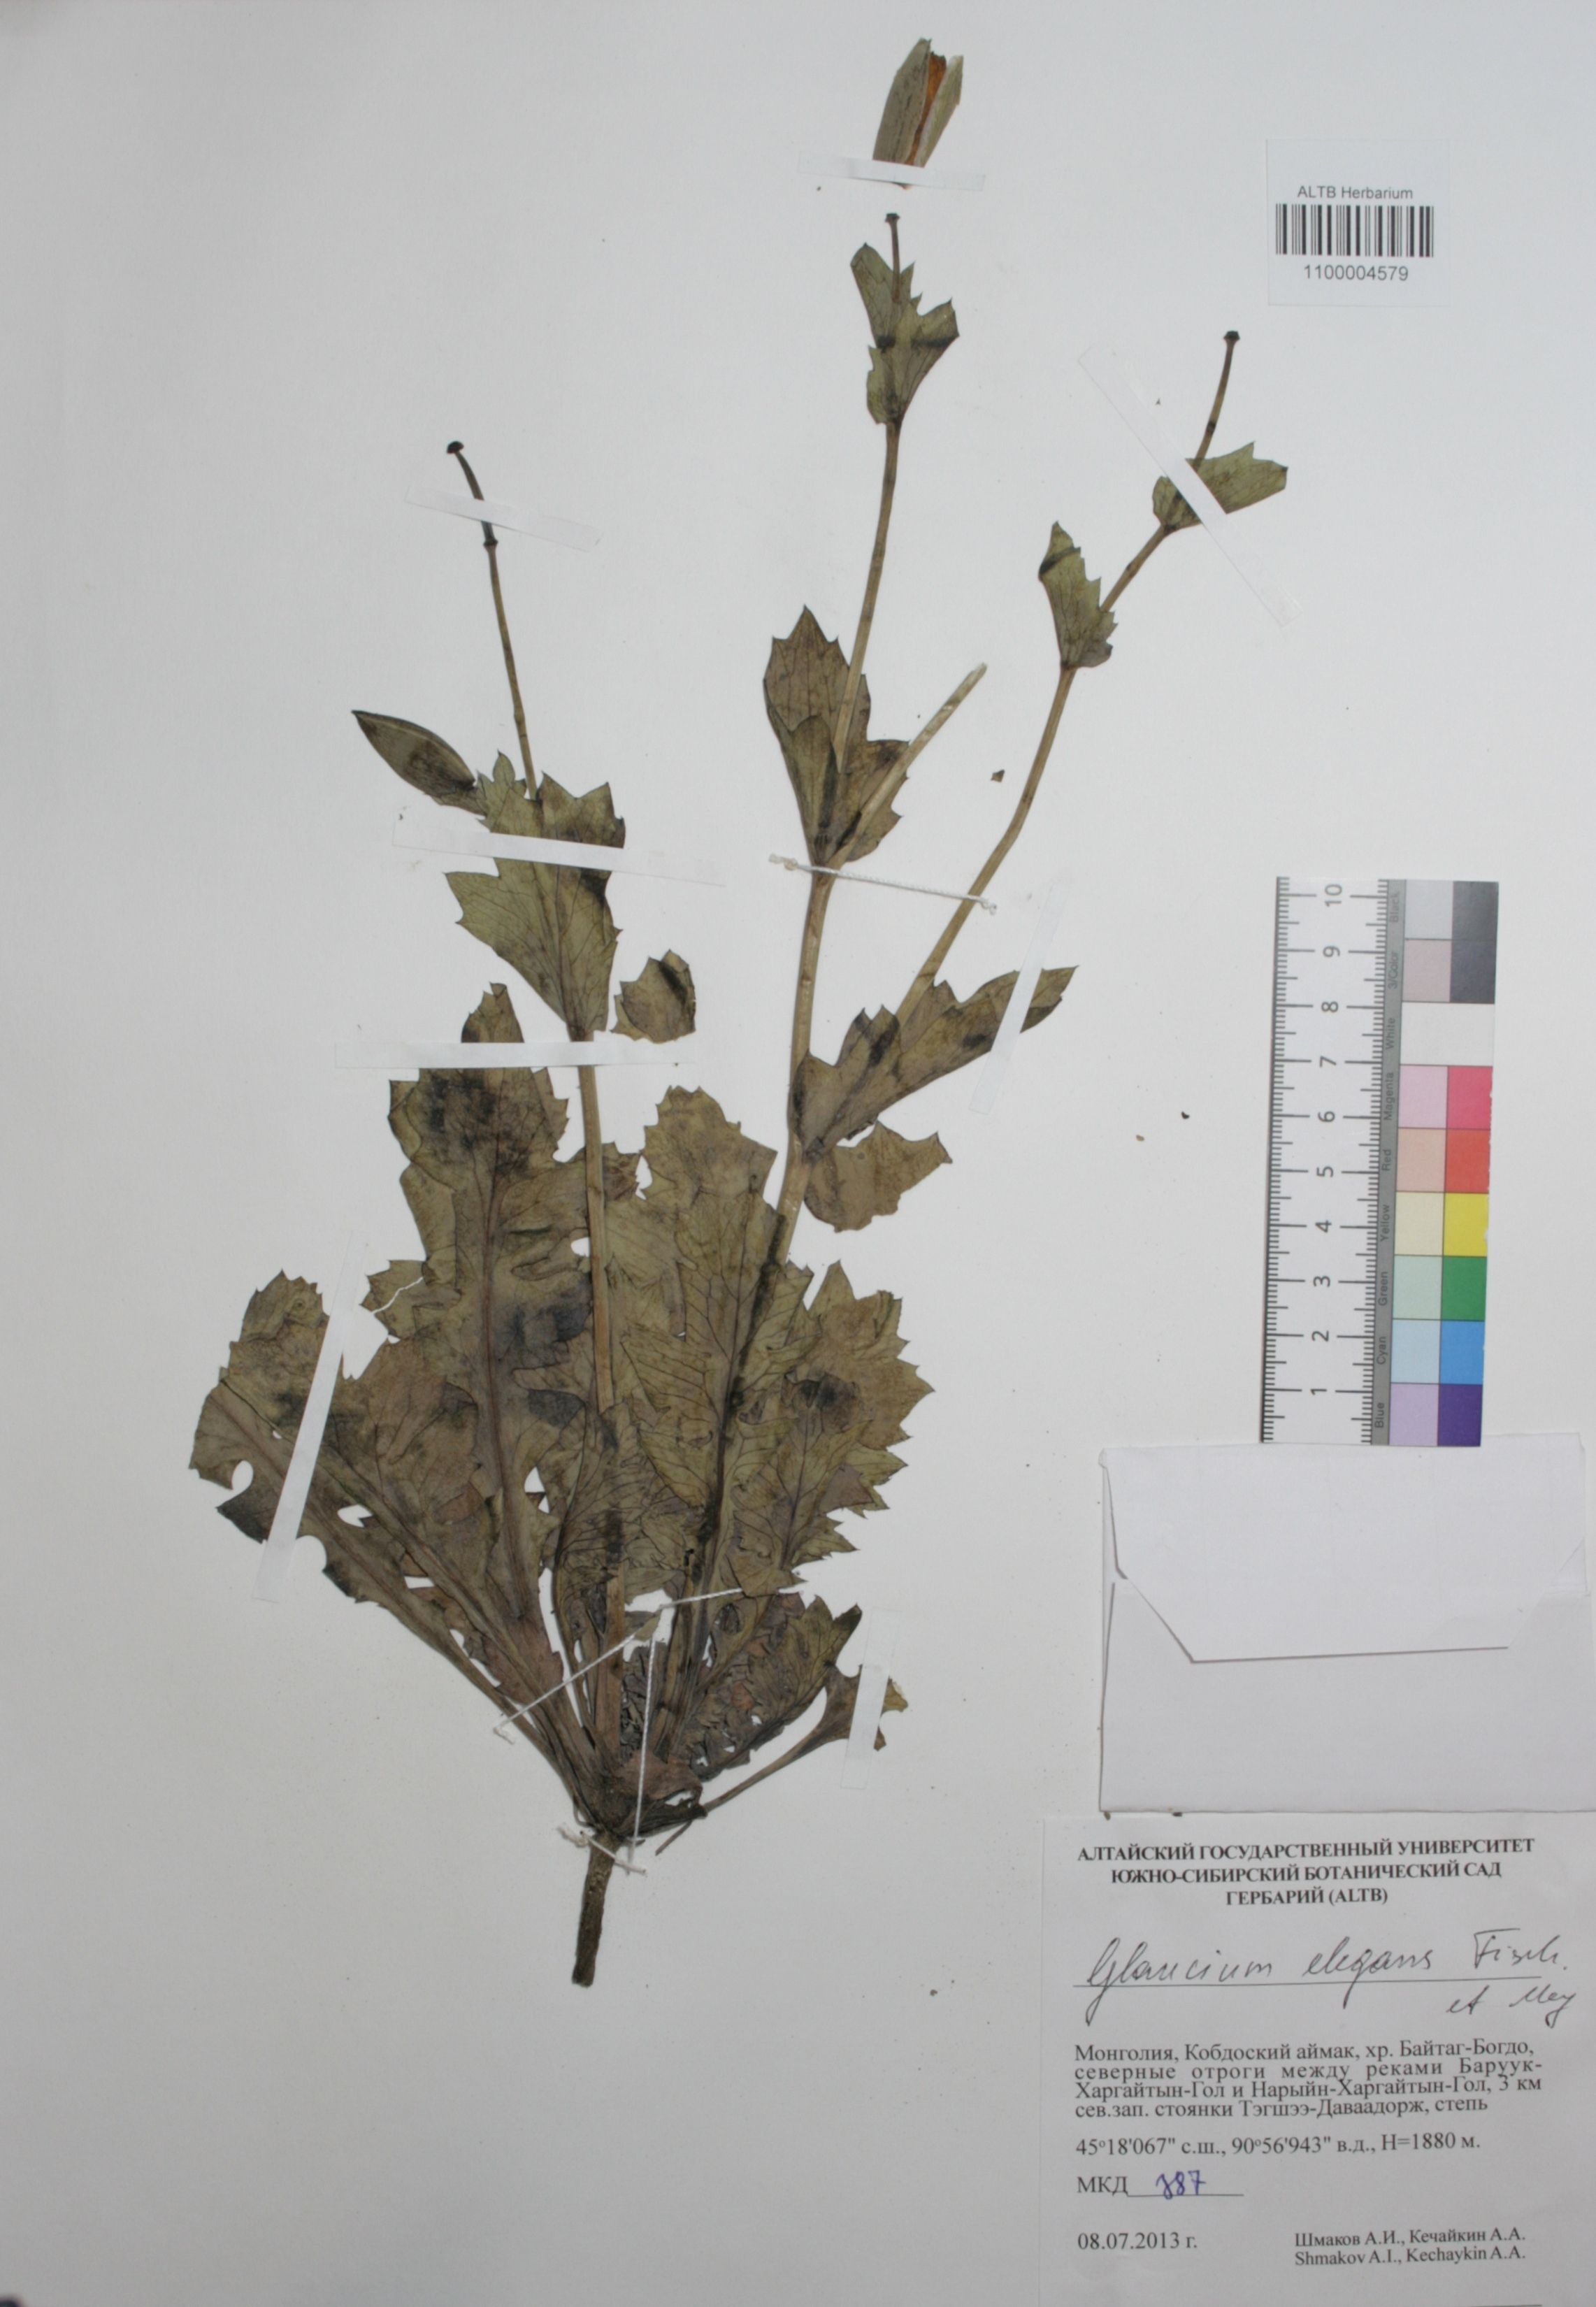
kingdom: Plantae
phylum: Tracheophyta
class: Magnoliopsida
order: Ranunculales
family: Papaveraceae
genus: Glaucium
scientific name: Glaucium elegans
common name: Annual horned-poppy
